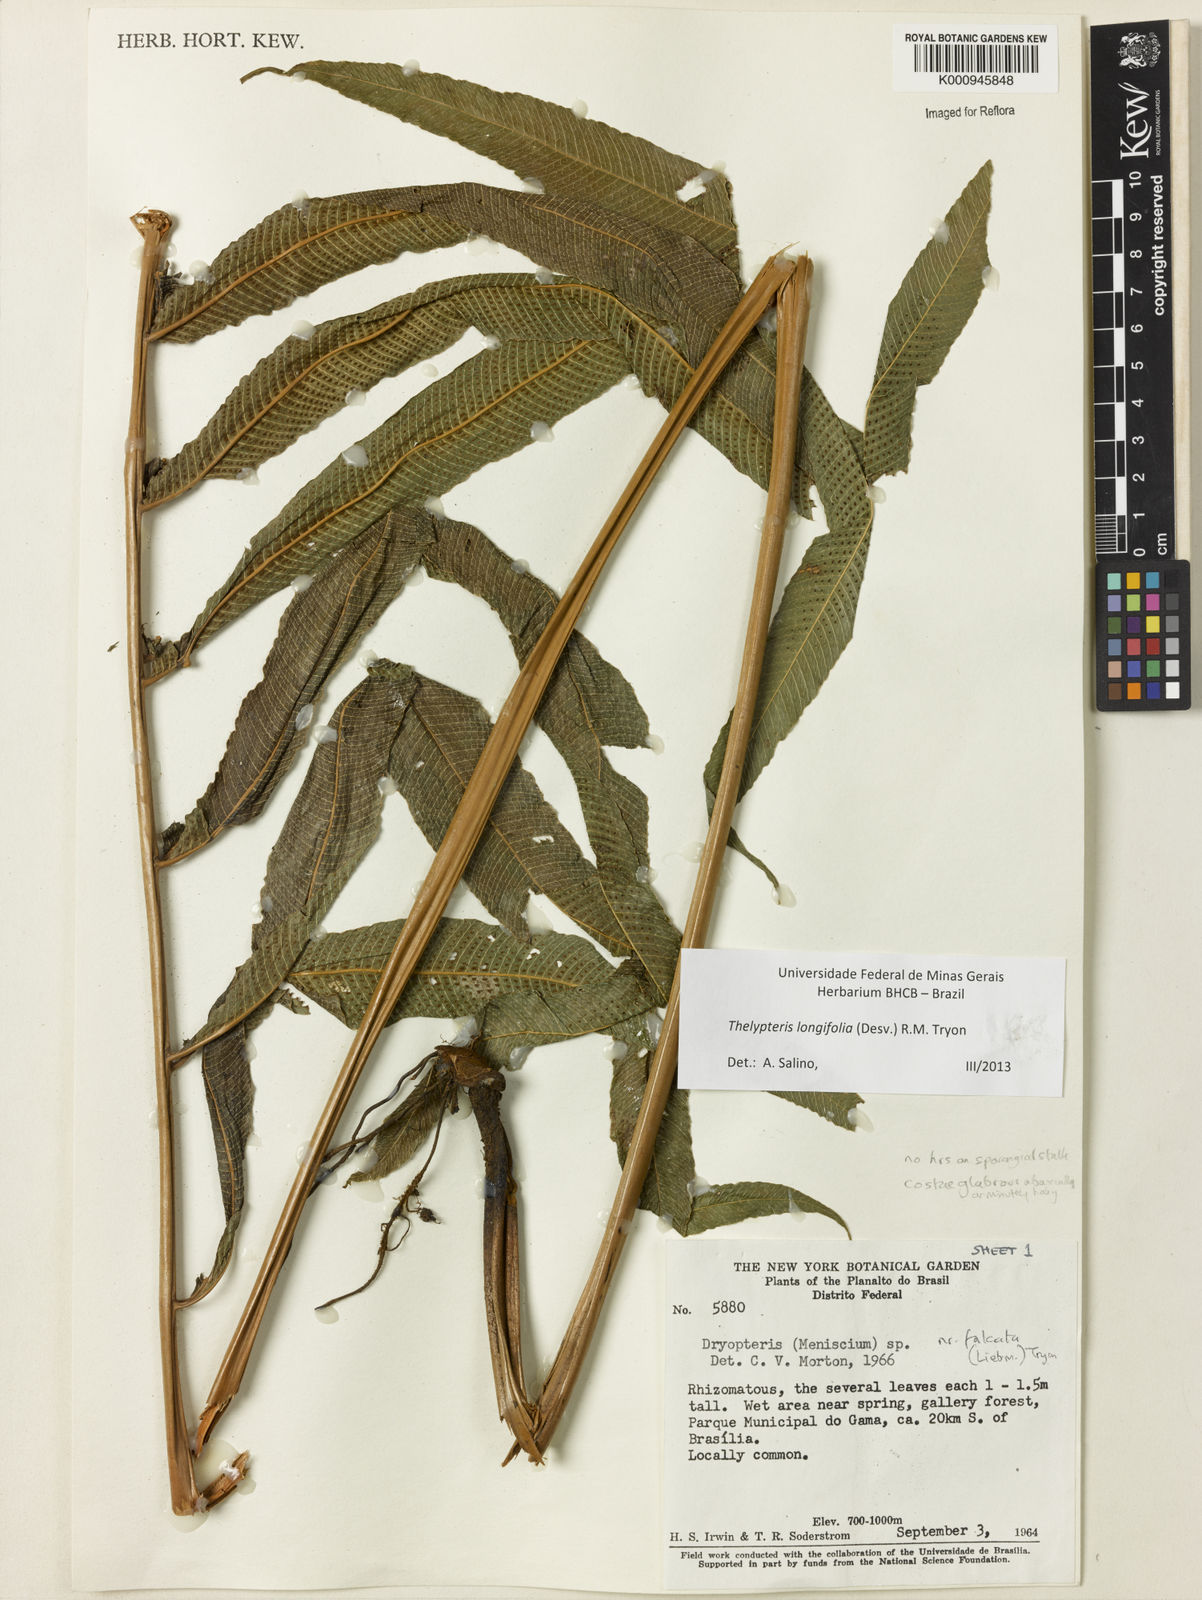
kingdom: Plantae
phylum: Tracheophyta
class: Polypodiopsida
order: Polypodiales
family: Thelypteridaceae
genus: Meniscium
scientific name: Meniscium longifolium
